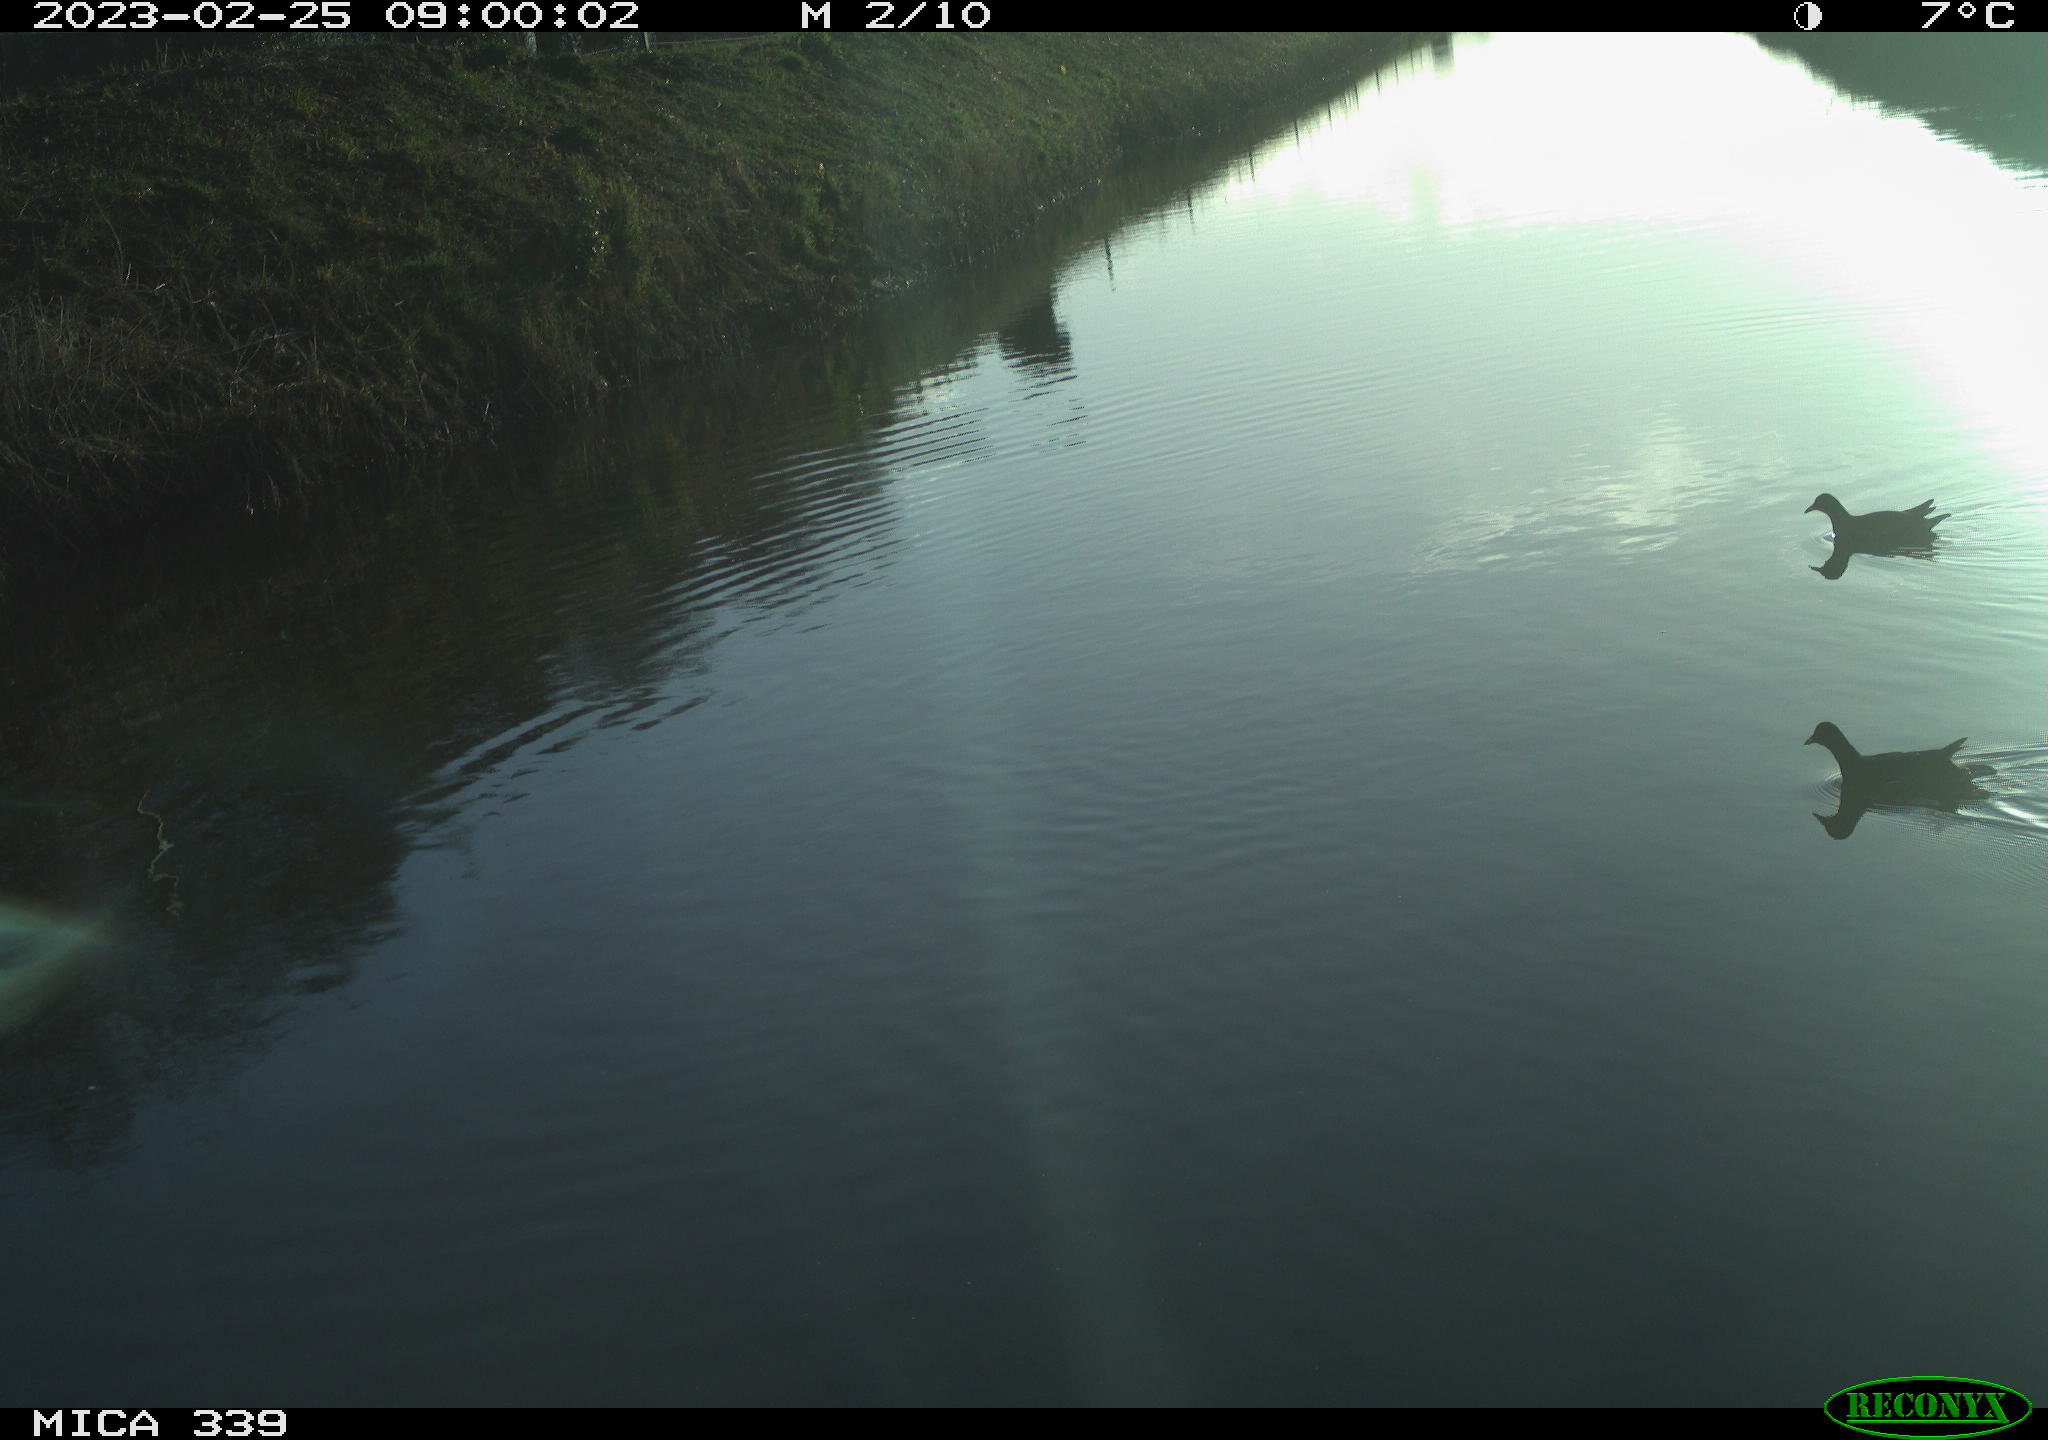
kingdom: Animalia
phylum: Chordata
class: Aves
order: Gruiformes
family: Rallidae
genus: Gallinula
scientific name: Gallinula chloropus
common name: Common moorhen
